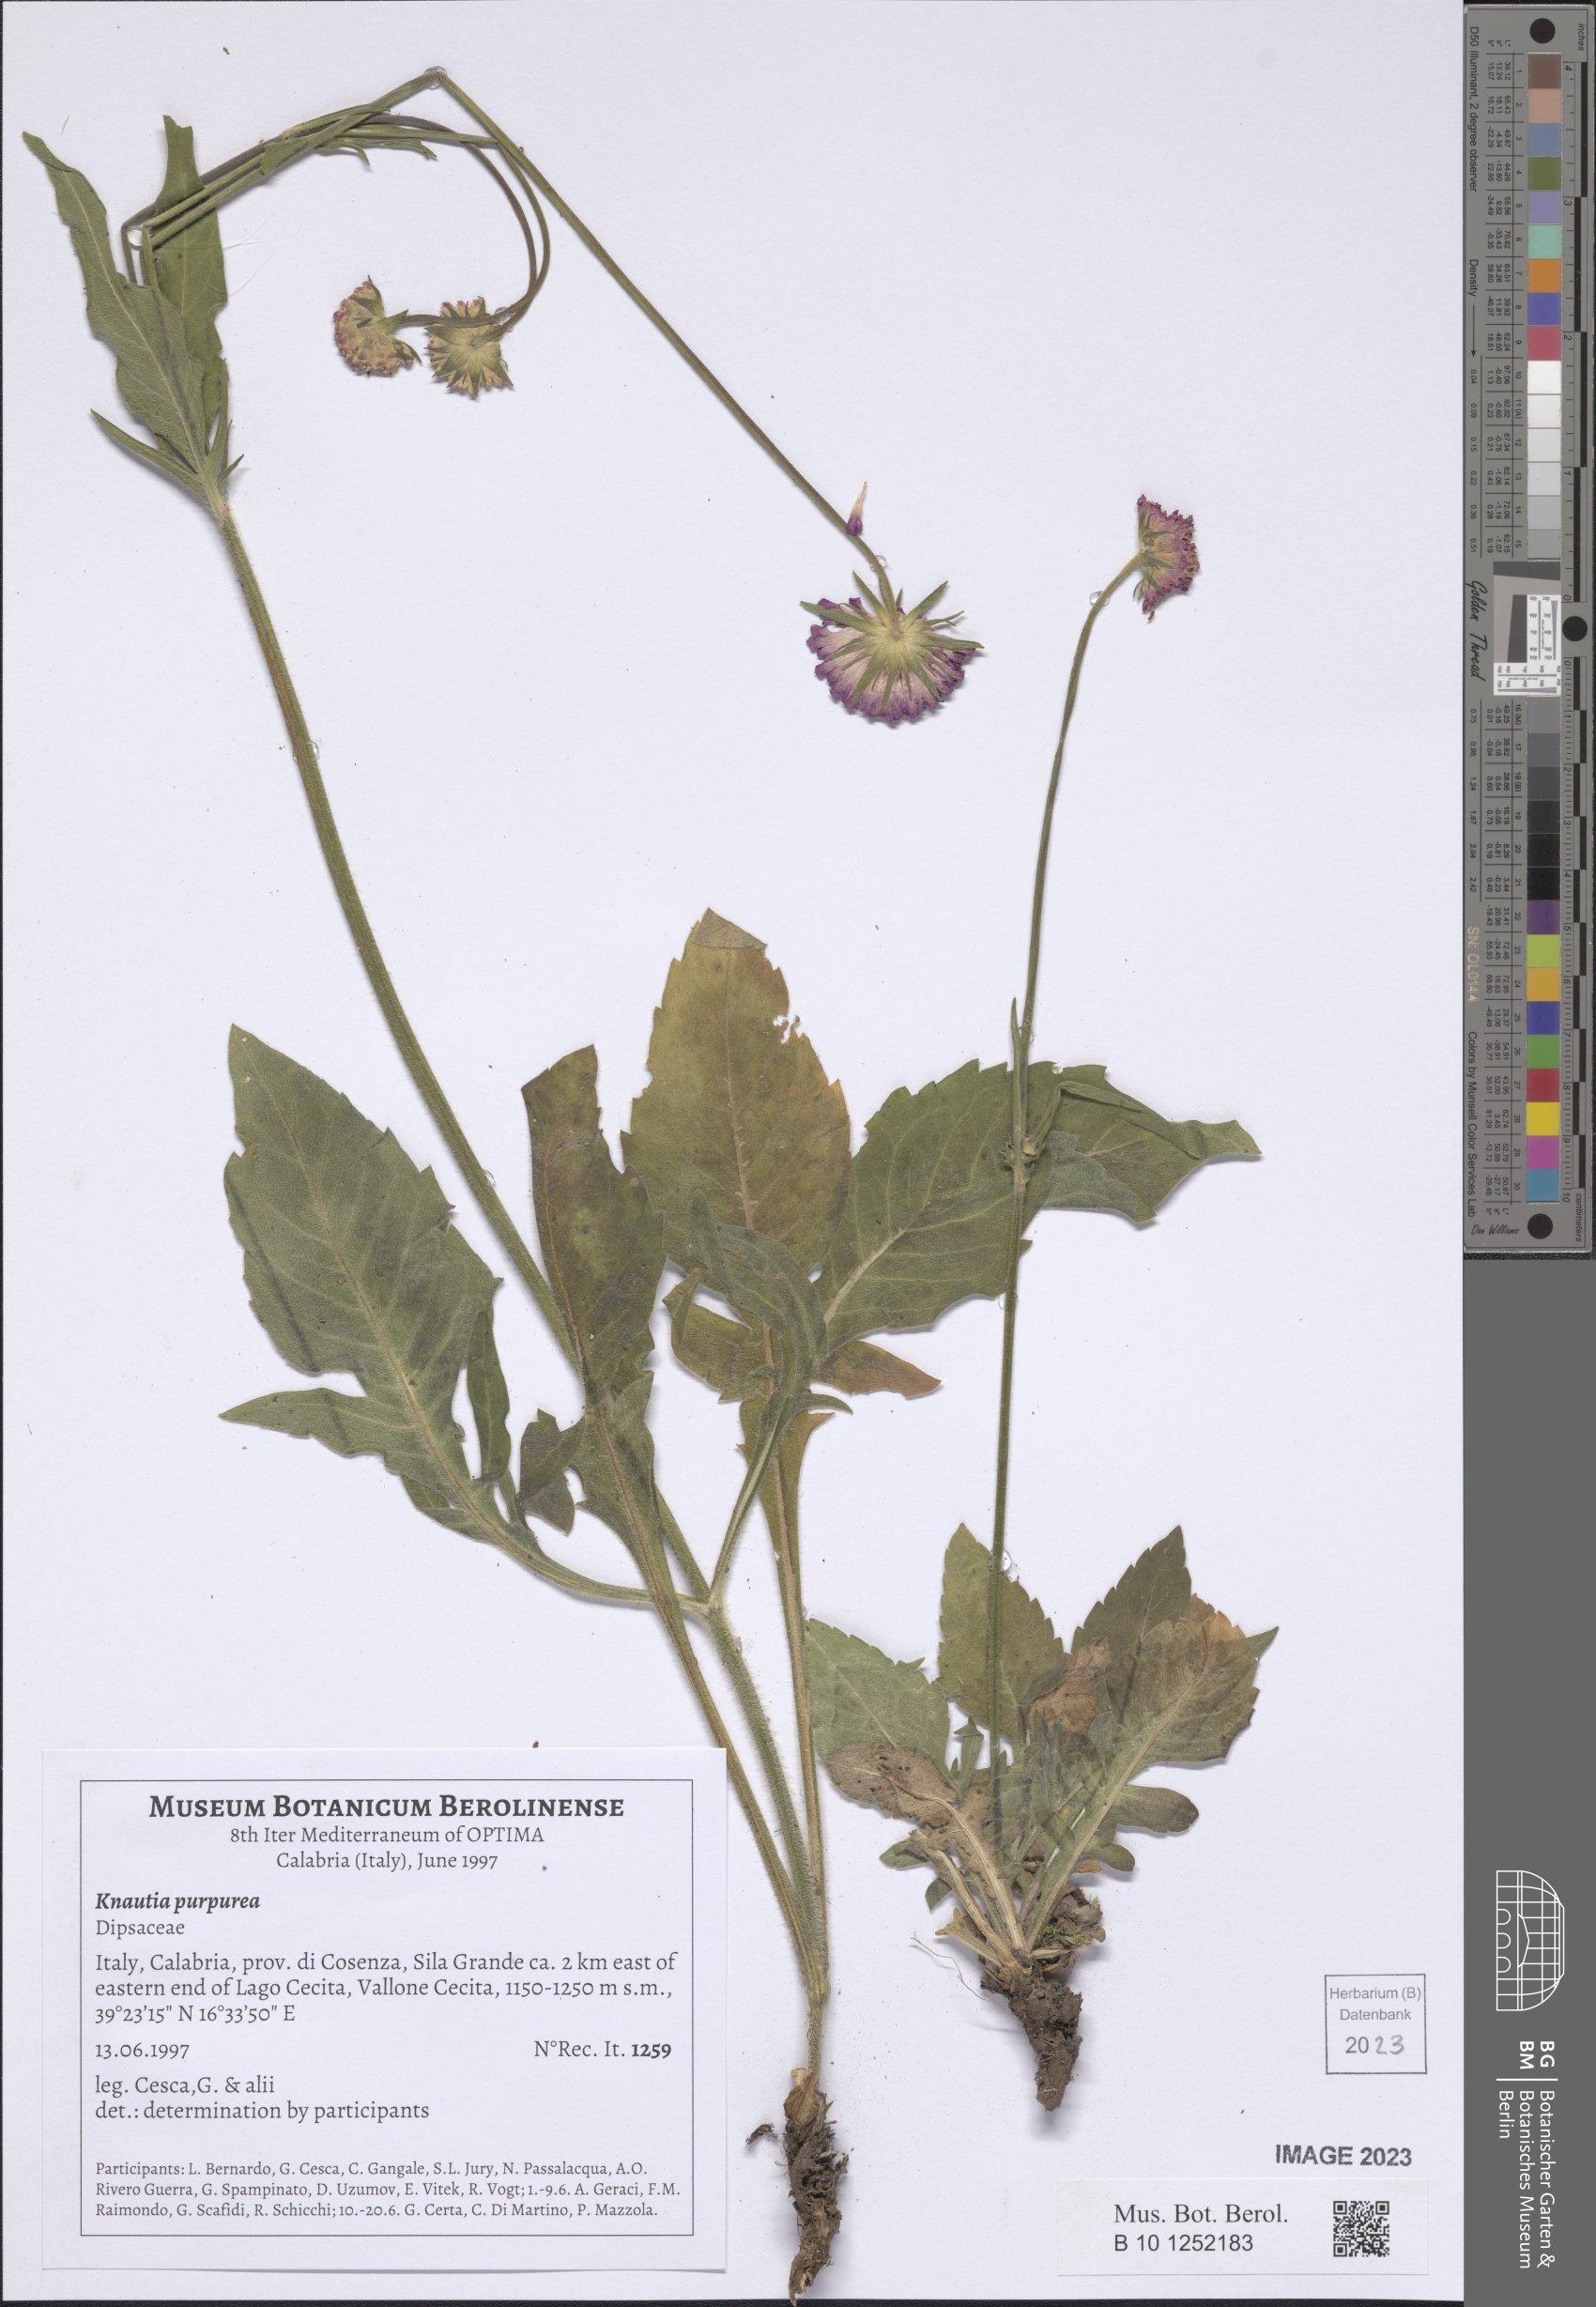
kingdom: Plantae
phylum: Tracheophyta
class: Magnoliopsida
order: Dipsacales
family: Caprifoliaceae
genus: Knautia
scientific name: Knautia collina
